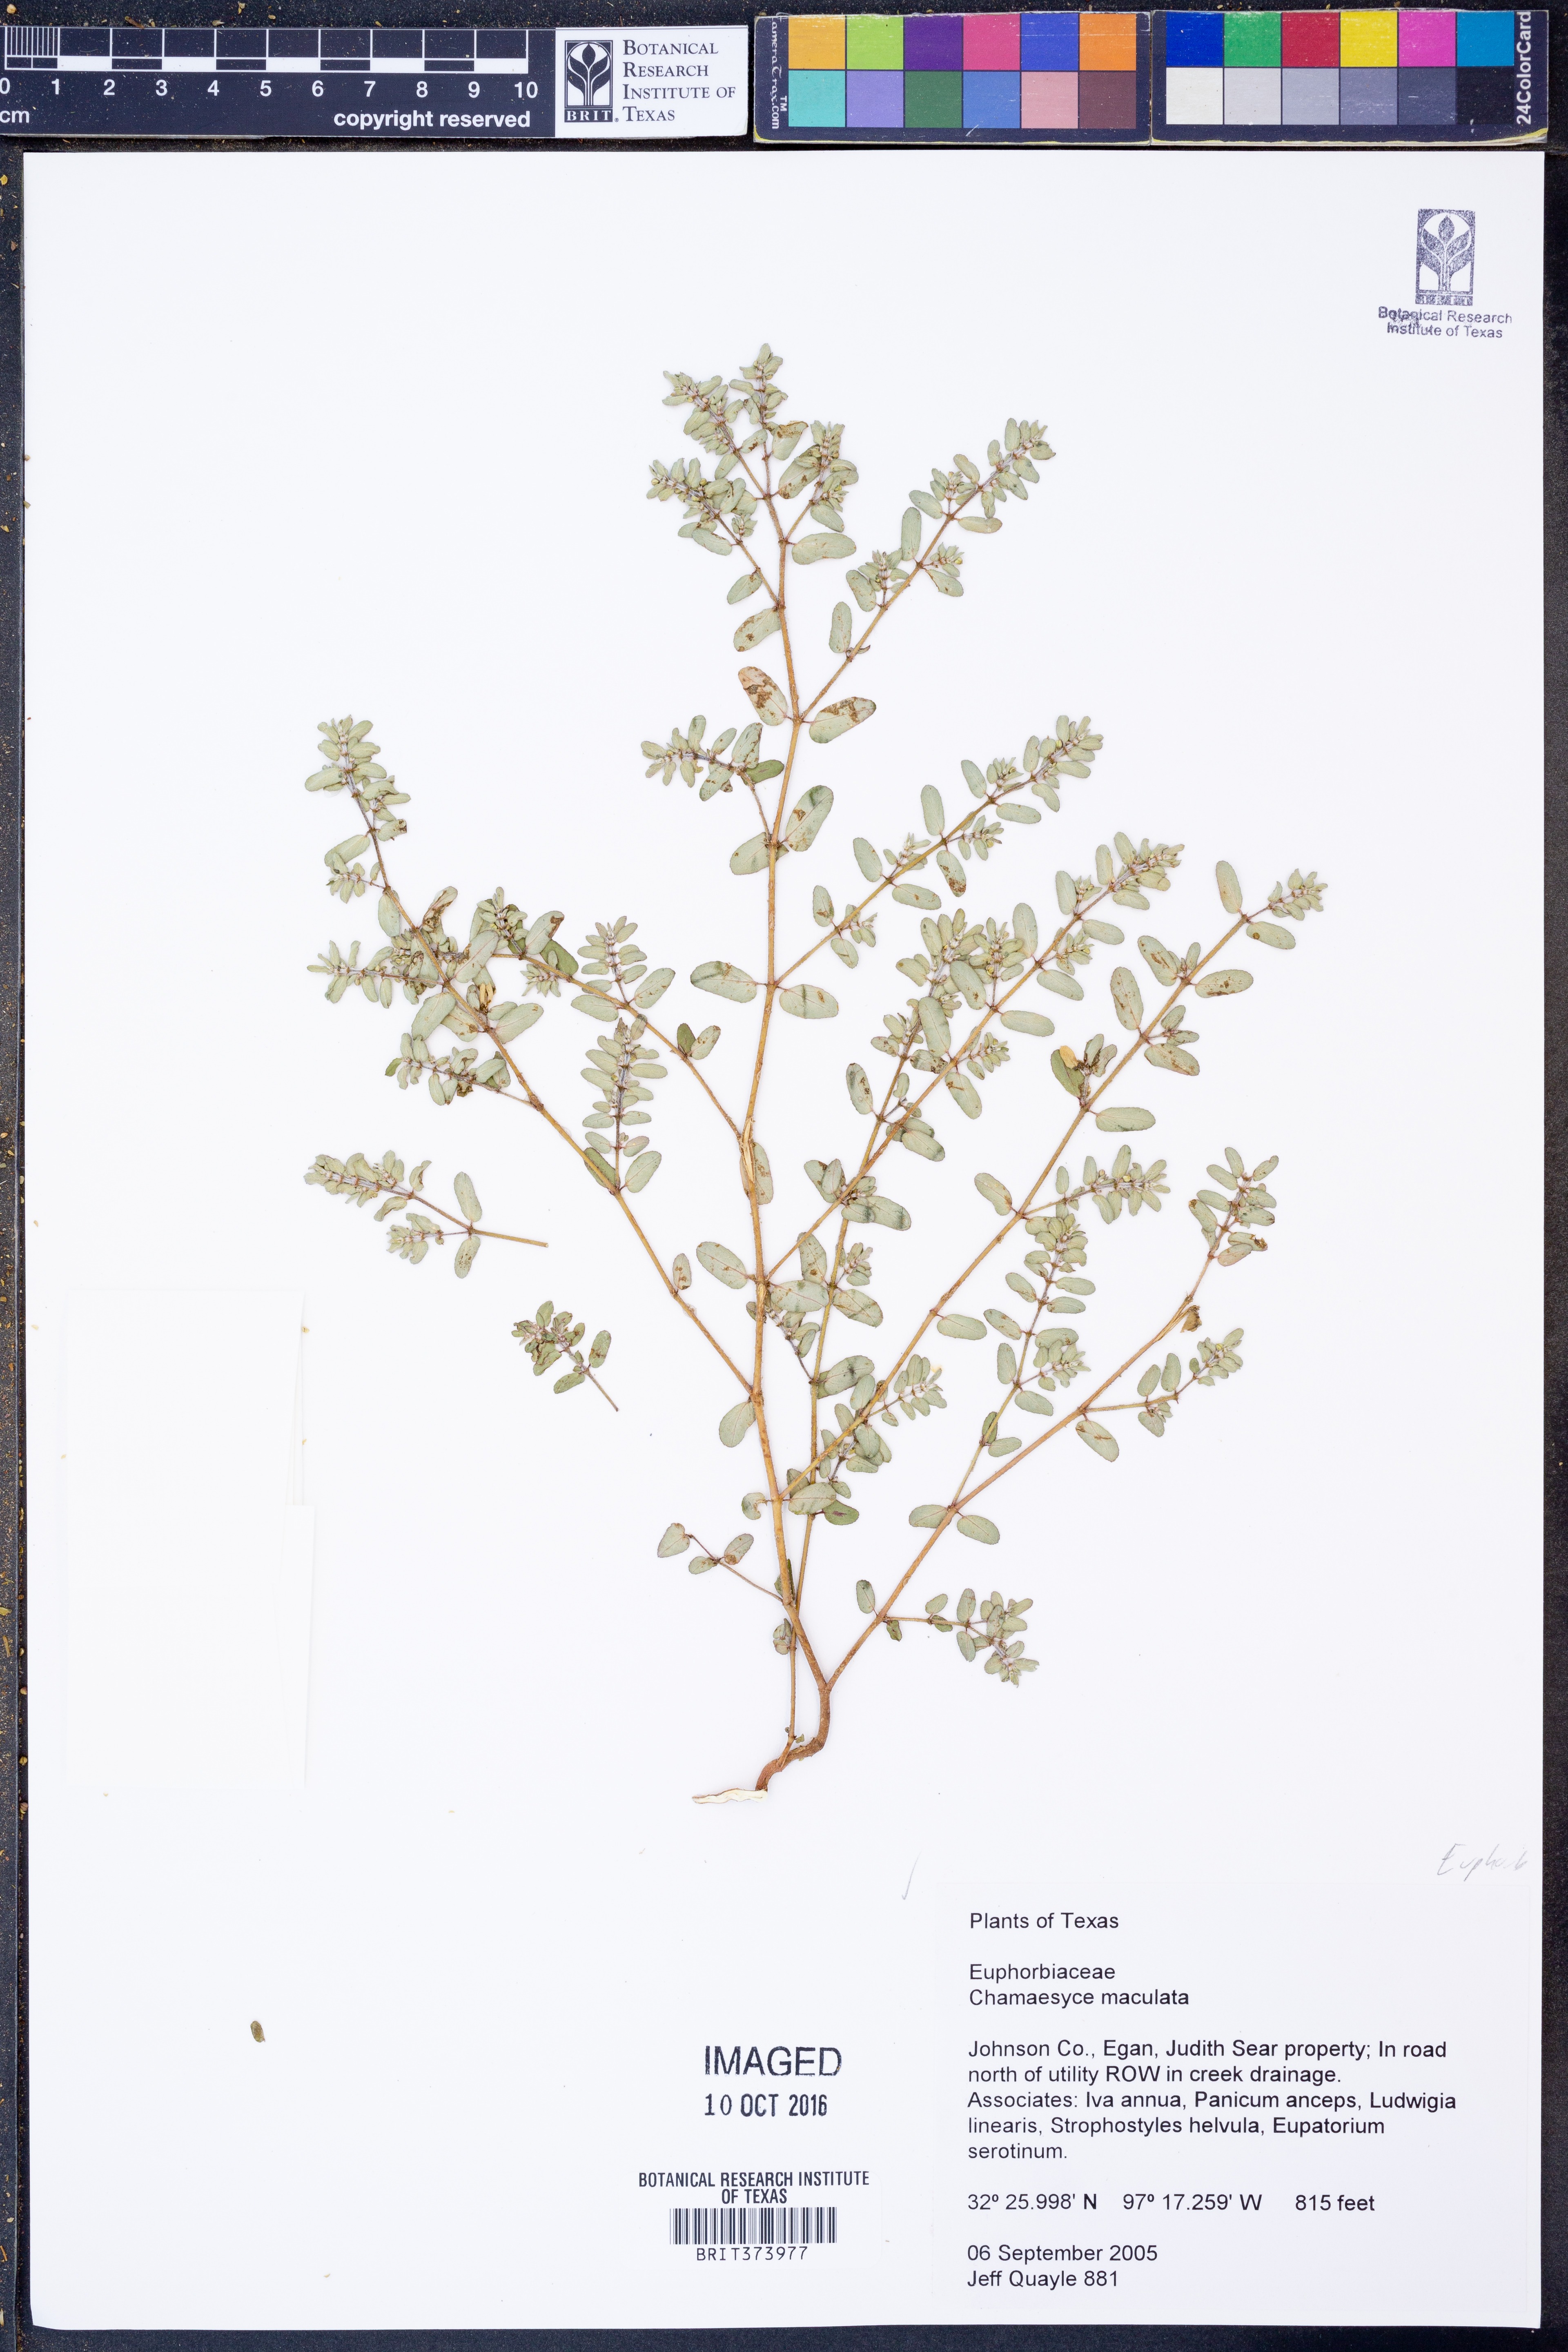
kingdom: Plantae
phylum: Tracheophyta
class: Magnoliopsida
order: Malpighiales
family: Euphorbiaceae
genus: Euphorbia
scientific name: Euphorbia maculata
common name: Spotted spurge
